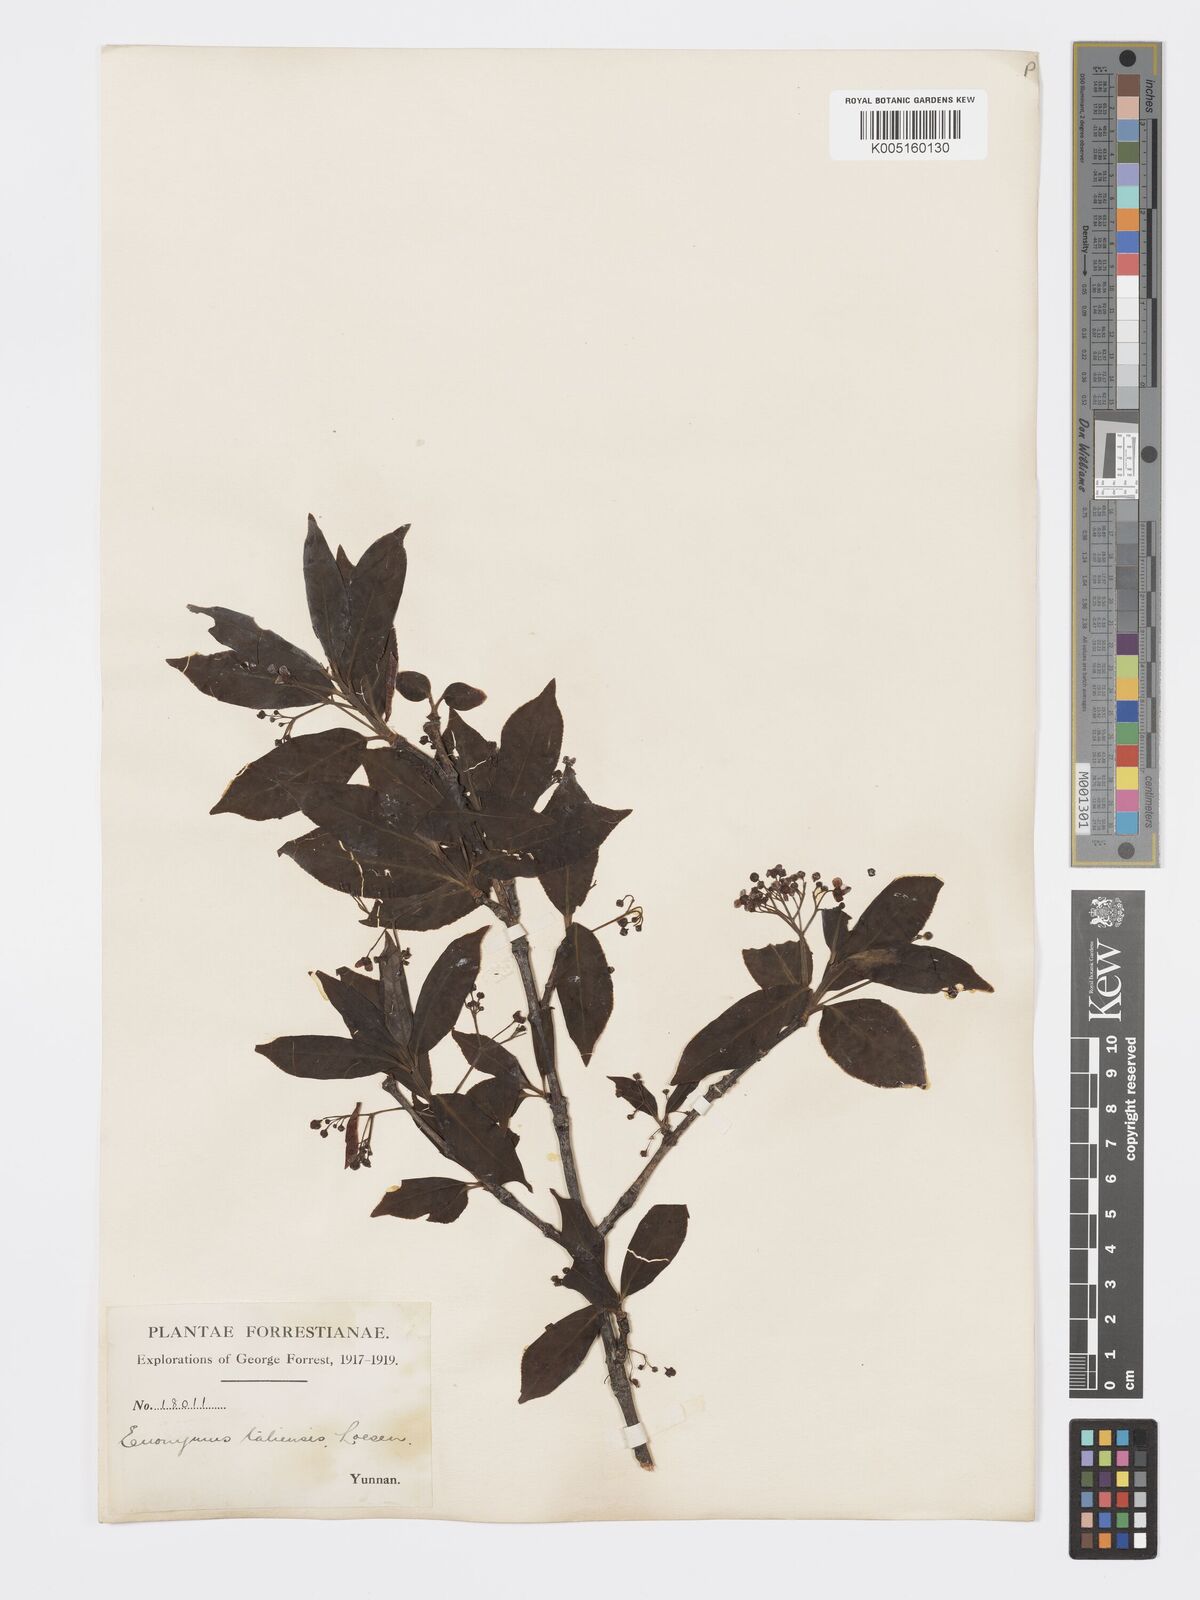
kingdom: Plantae
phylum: Tracheophyta
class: Magnoliopsida
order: Celastrales
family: Celastraceae
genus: Euonymus
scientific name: Euonymus amygdalifolius
